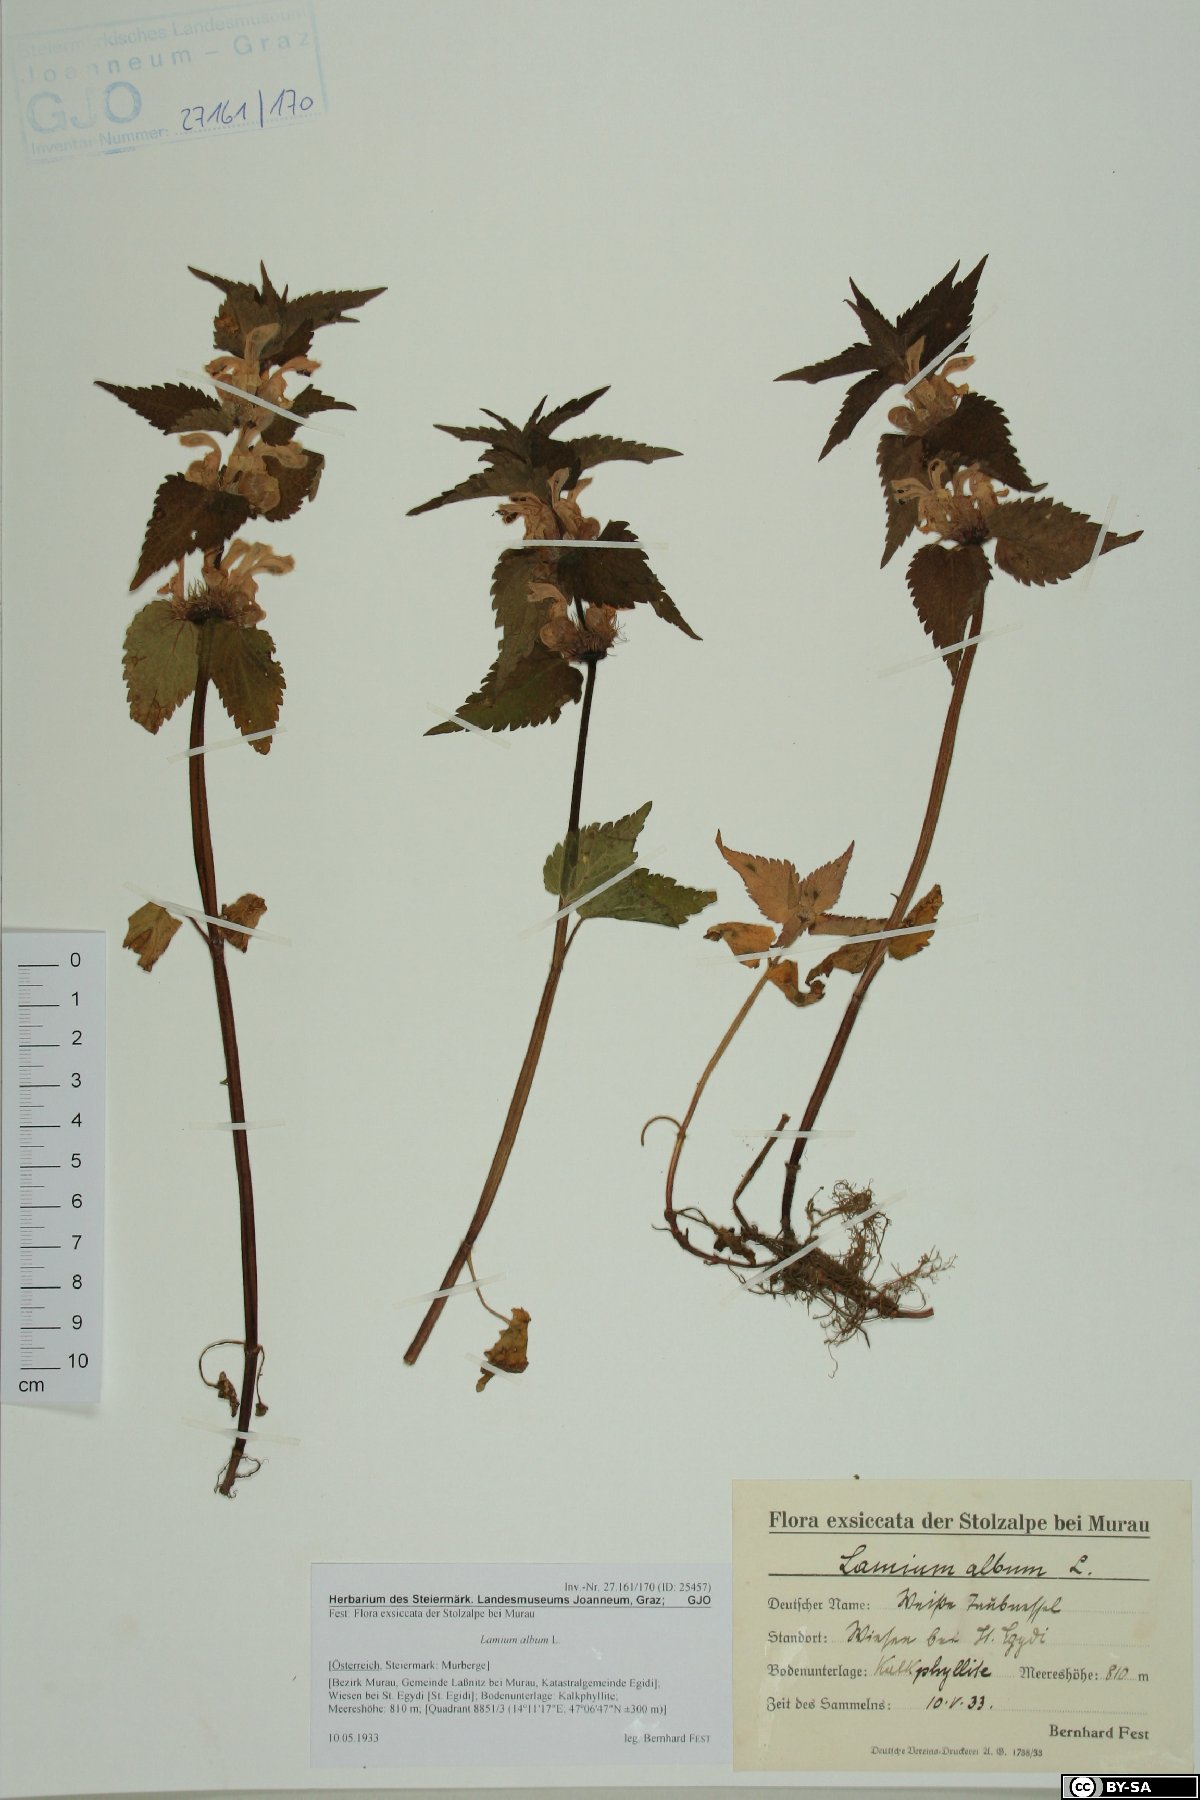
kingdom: Plantae
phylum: Tracheophyta
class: Magnoliopsida
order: Lamiales
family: Lamiaceae
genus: Lamium
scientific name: Lamium album
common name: White dead-nettle
